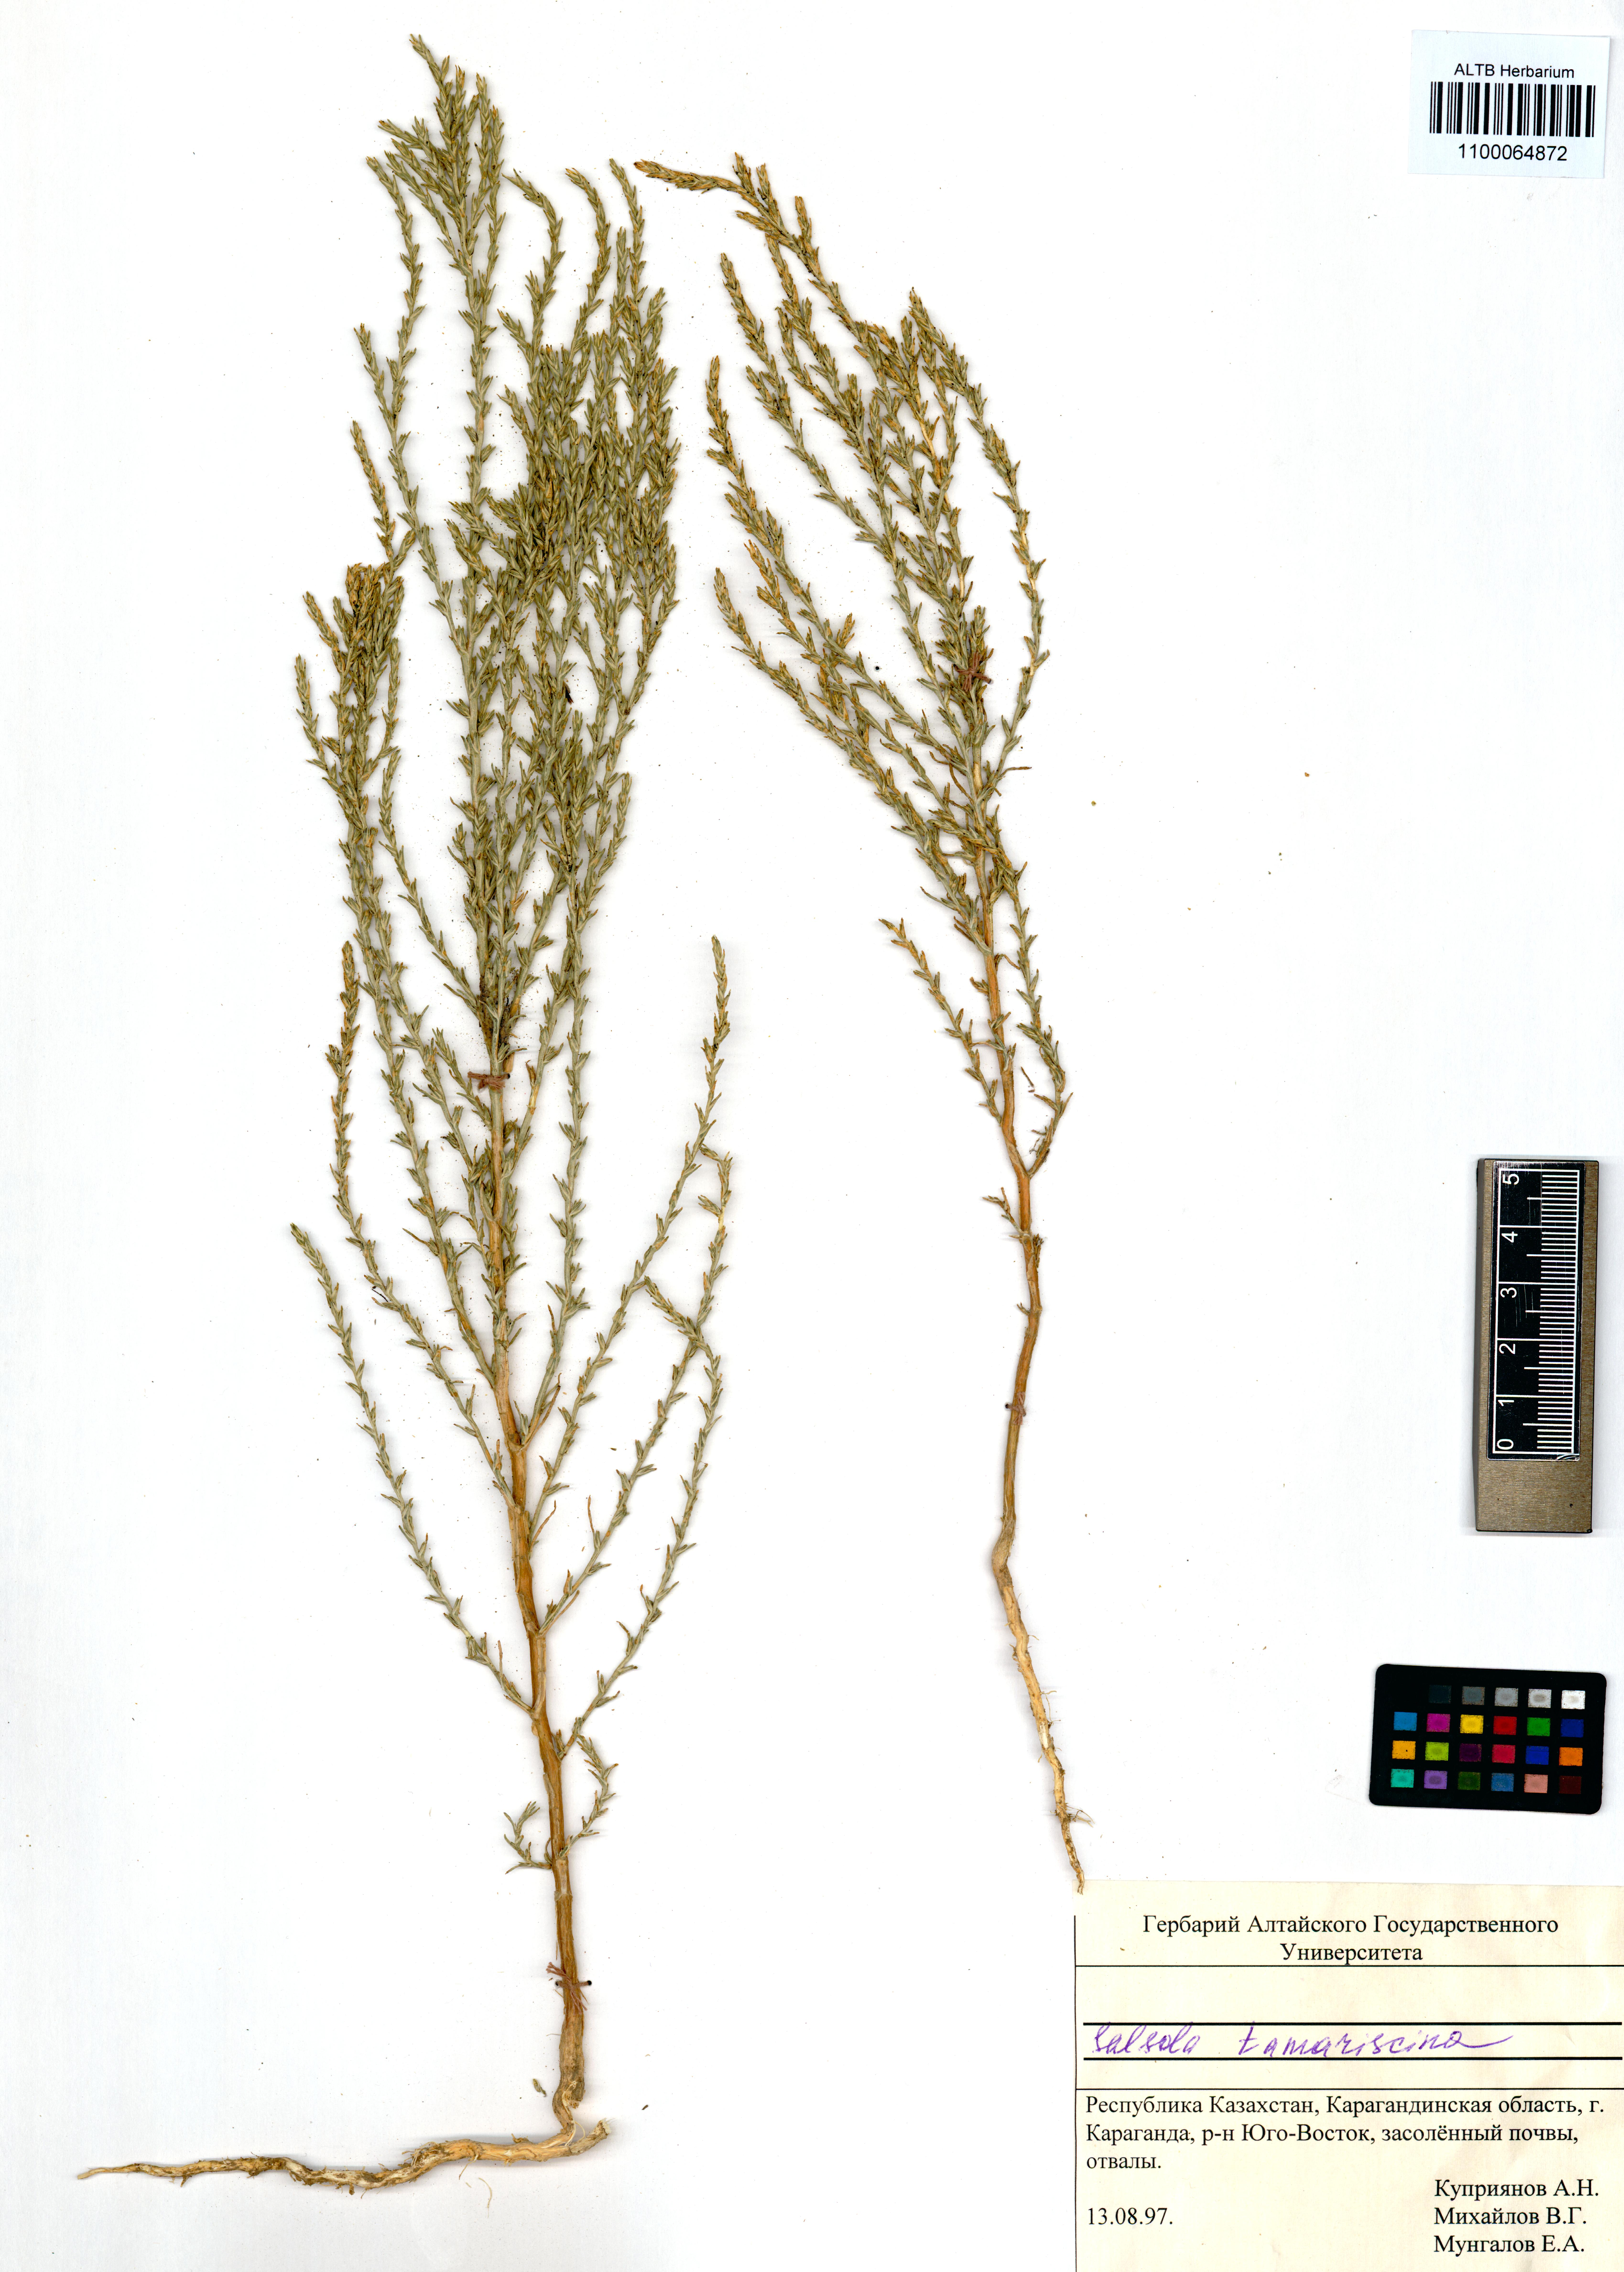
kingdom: Plantae
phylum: Tracheophyta
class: Magnoliopsida
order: Caryophyllales
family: Amaranthaceae
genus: Salsola
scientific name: Salsola tamariscina
